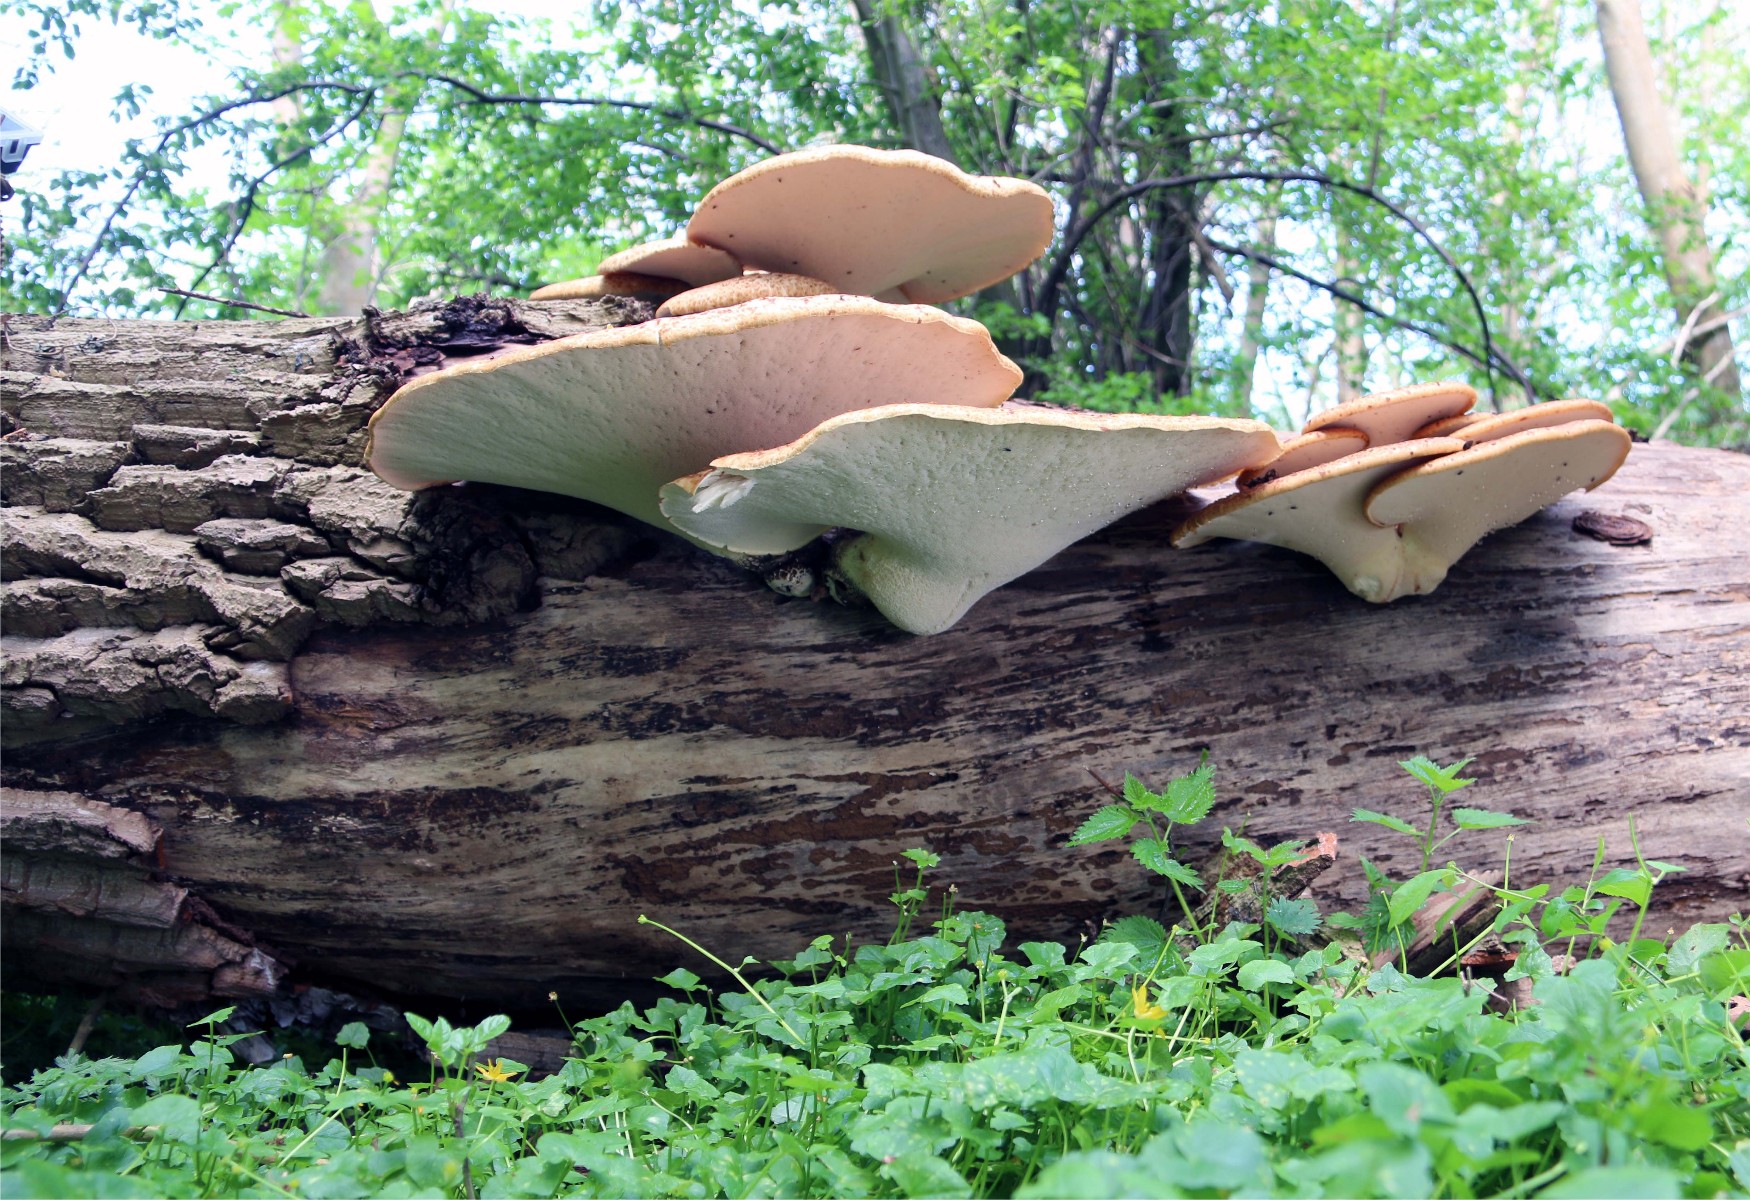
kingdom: Fungi
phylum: Basidiomycota
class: Agaricomycetes
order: Polyporales
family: Polyporaceae
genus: Cerioporus
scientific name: Cerioporus squamosus
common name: skællet stilkporesvamp
